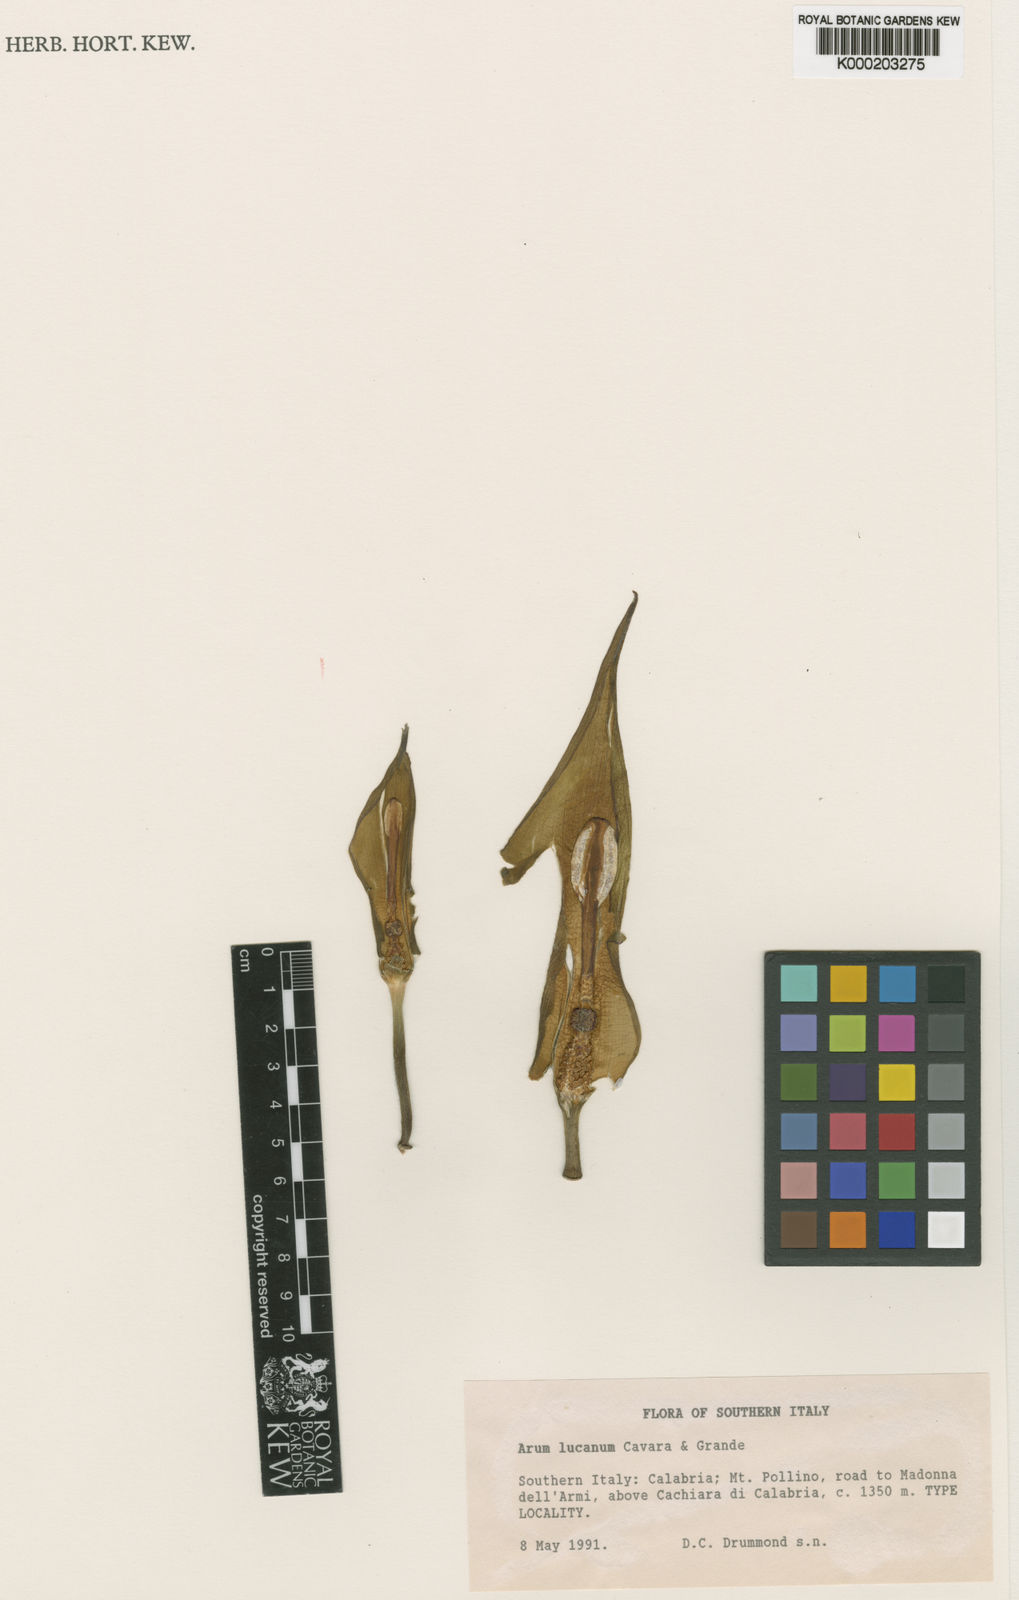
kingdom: Plantae
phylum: Tracheophyta
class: Liliopsida
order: Alismatales
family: Araceae
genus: Arum
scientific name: Arum lucanum
